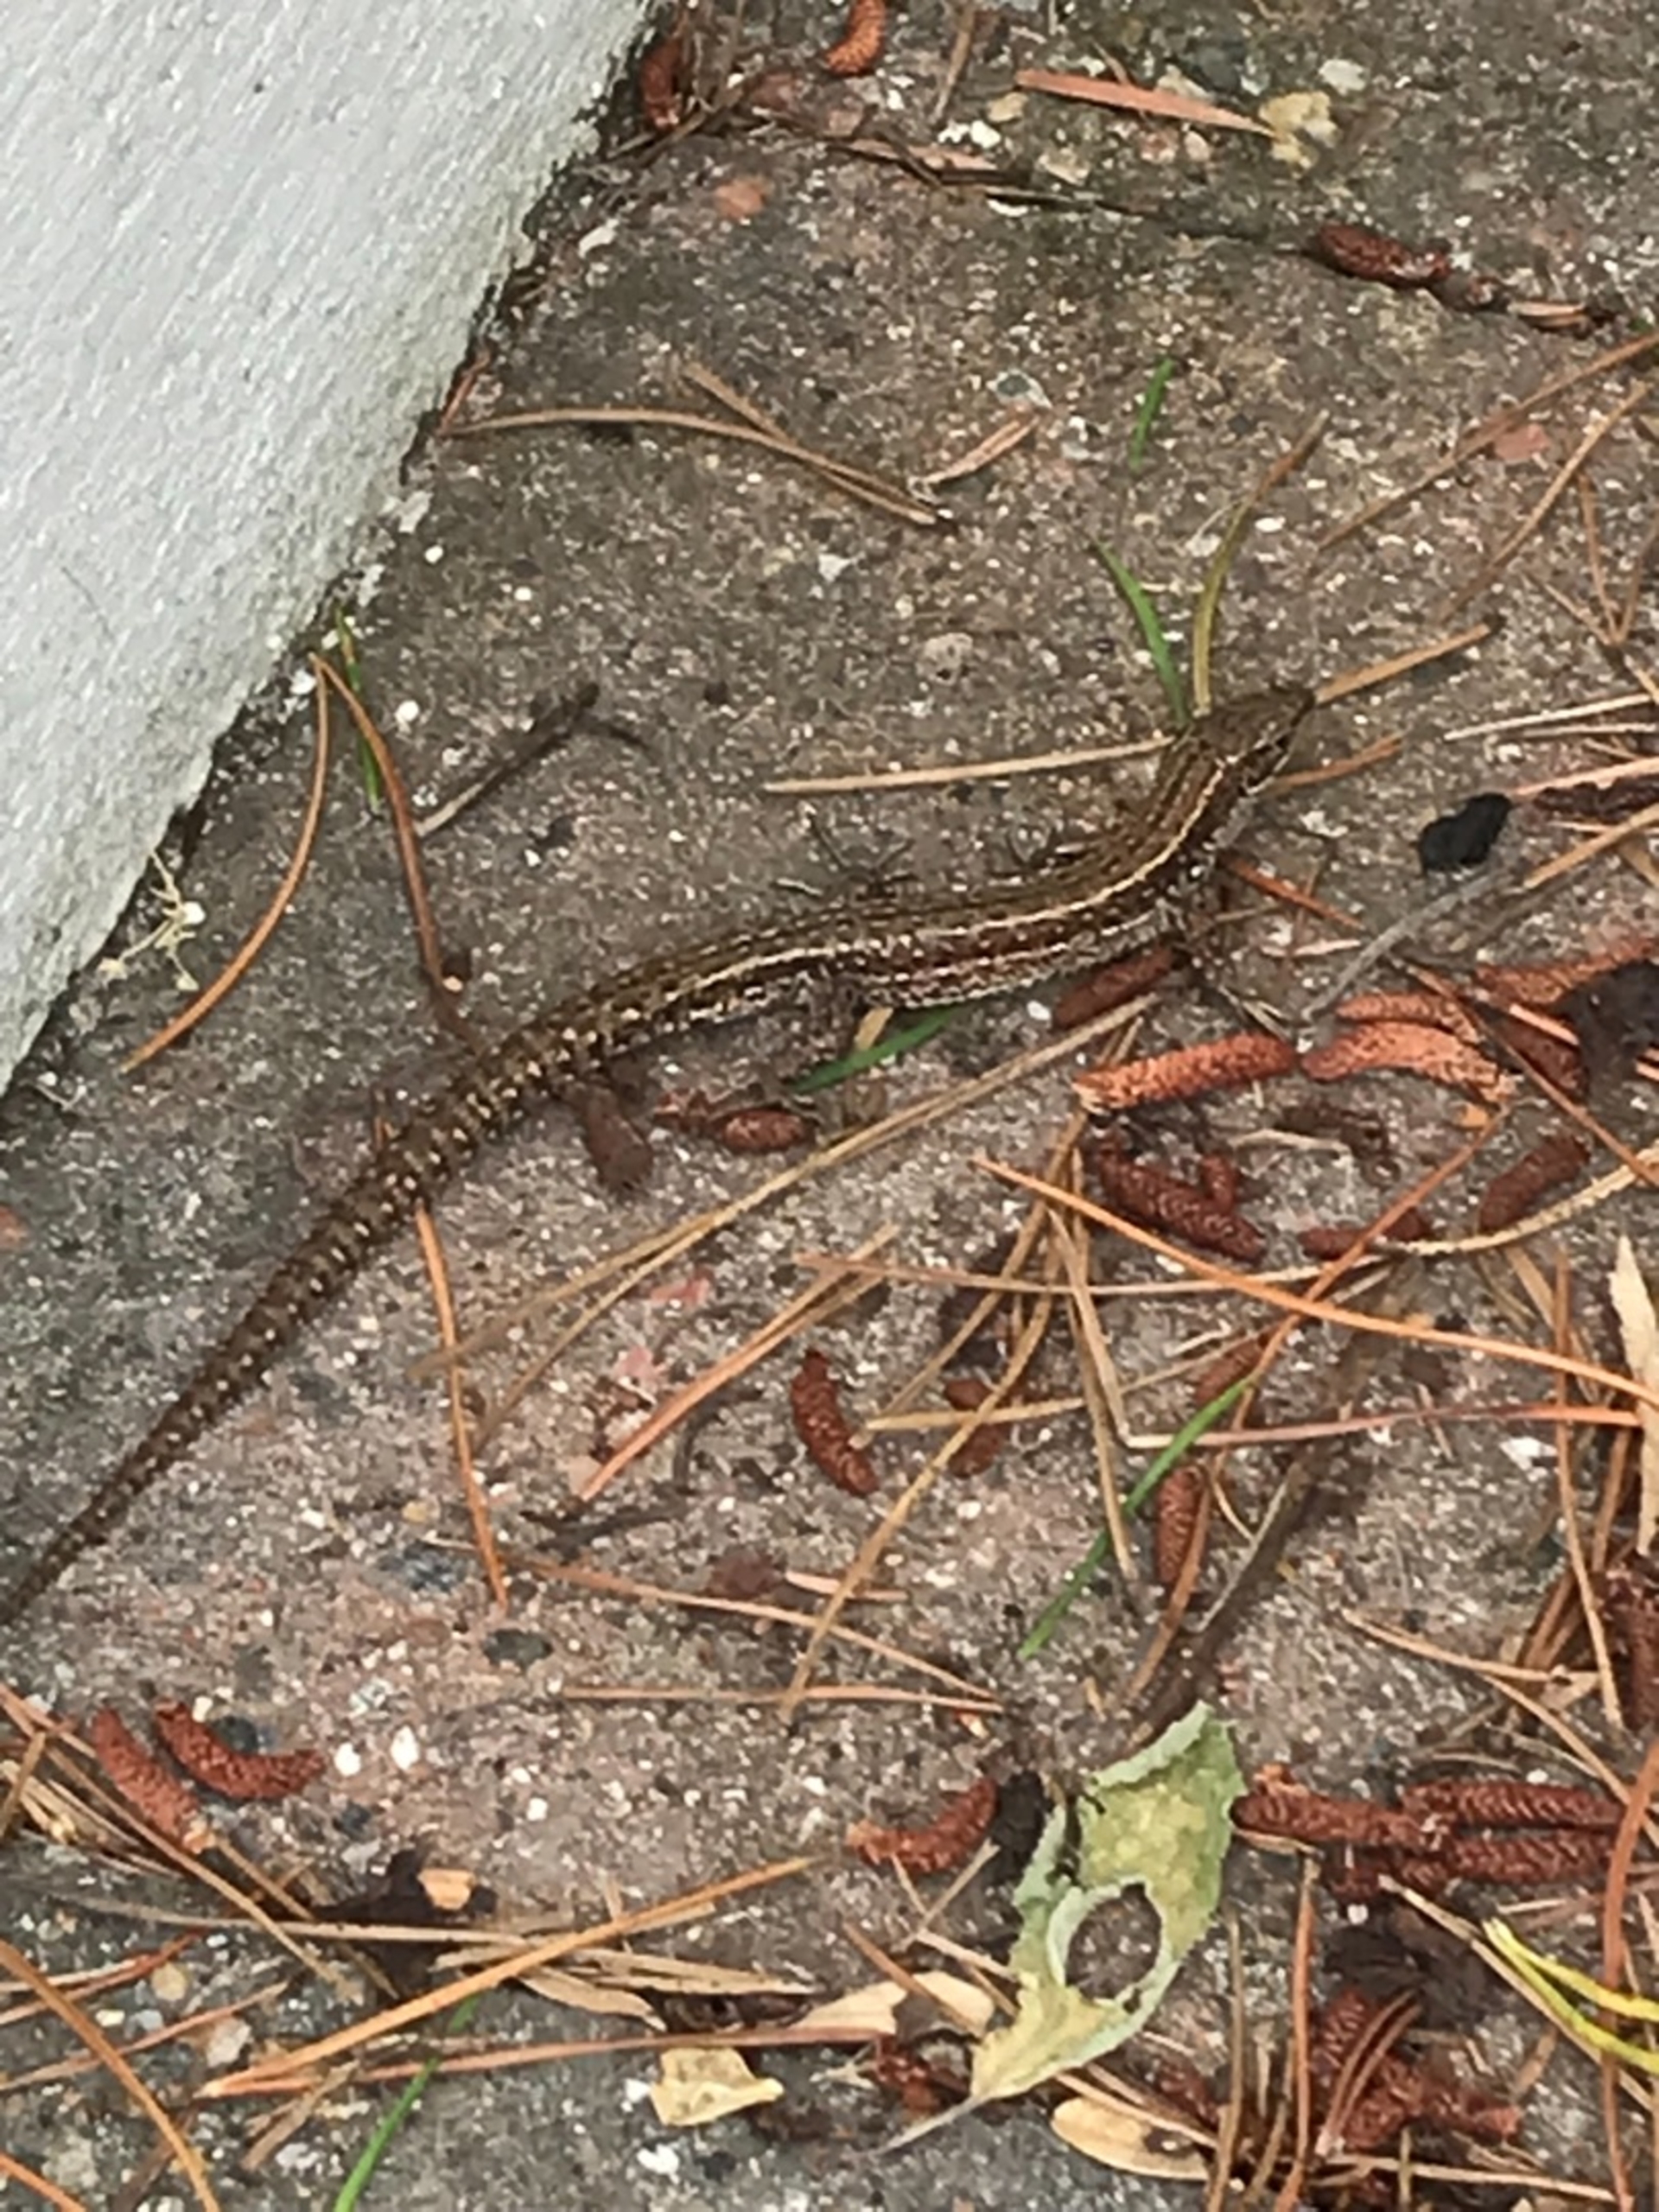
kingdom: Animalia
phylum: Chordata
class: Squamata
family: Lacertidae
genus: Zootoca
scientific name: Zootoca vivipara
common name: Skovfirben
